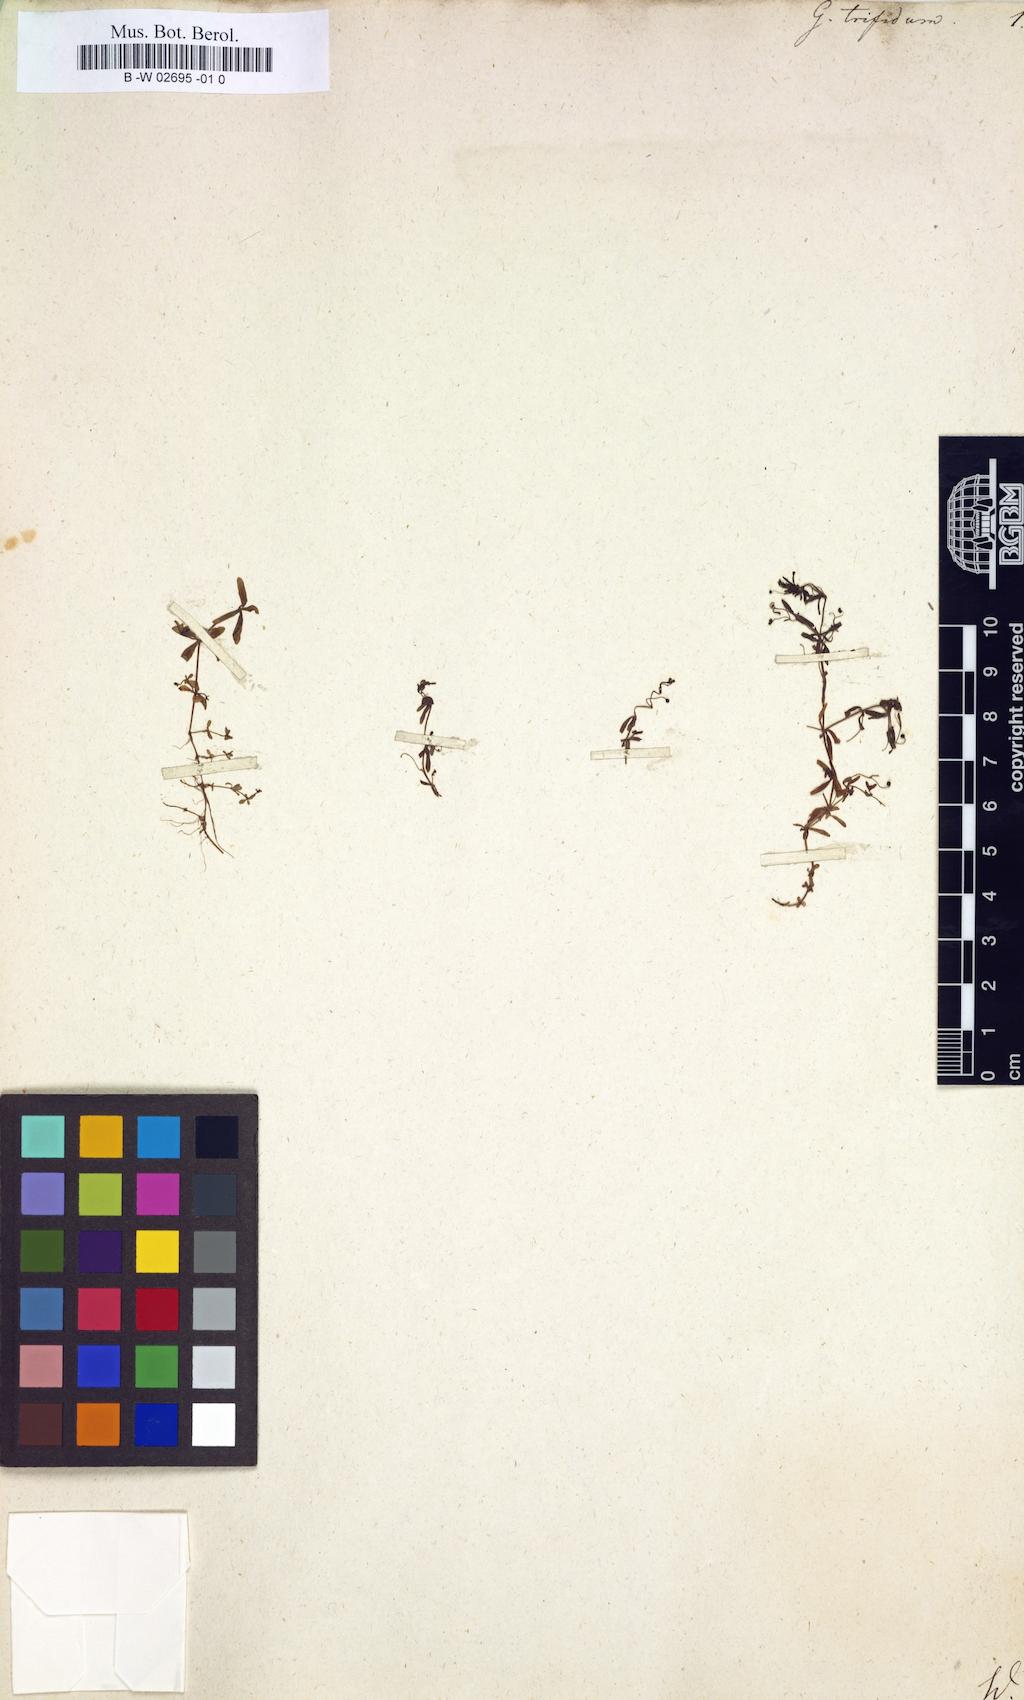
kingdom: Plantae
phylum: Tracheophyta
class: Magnoliopsida
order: Gentianales
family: Rubiaceae
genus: Galium
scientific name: Galium trifidum
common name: Small bedstraw
